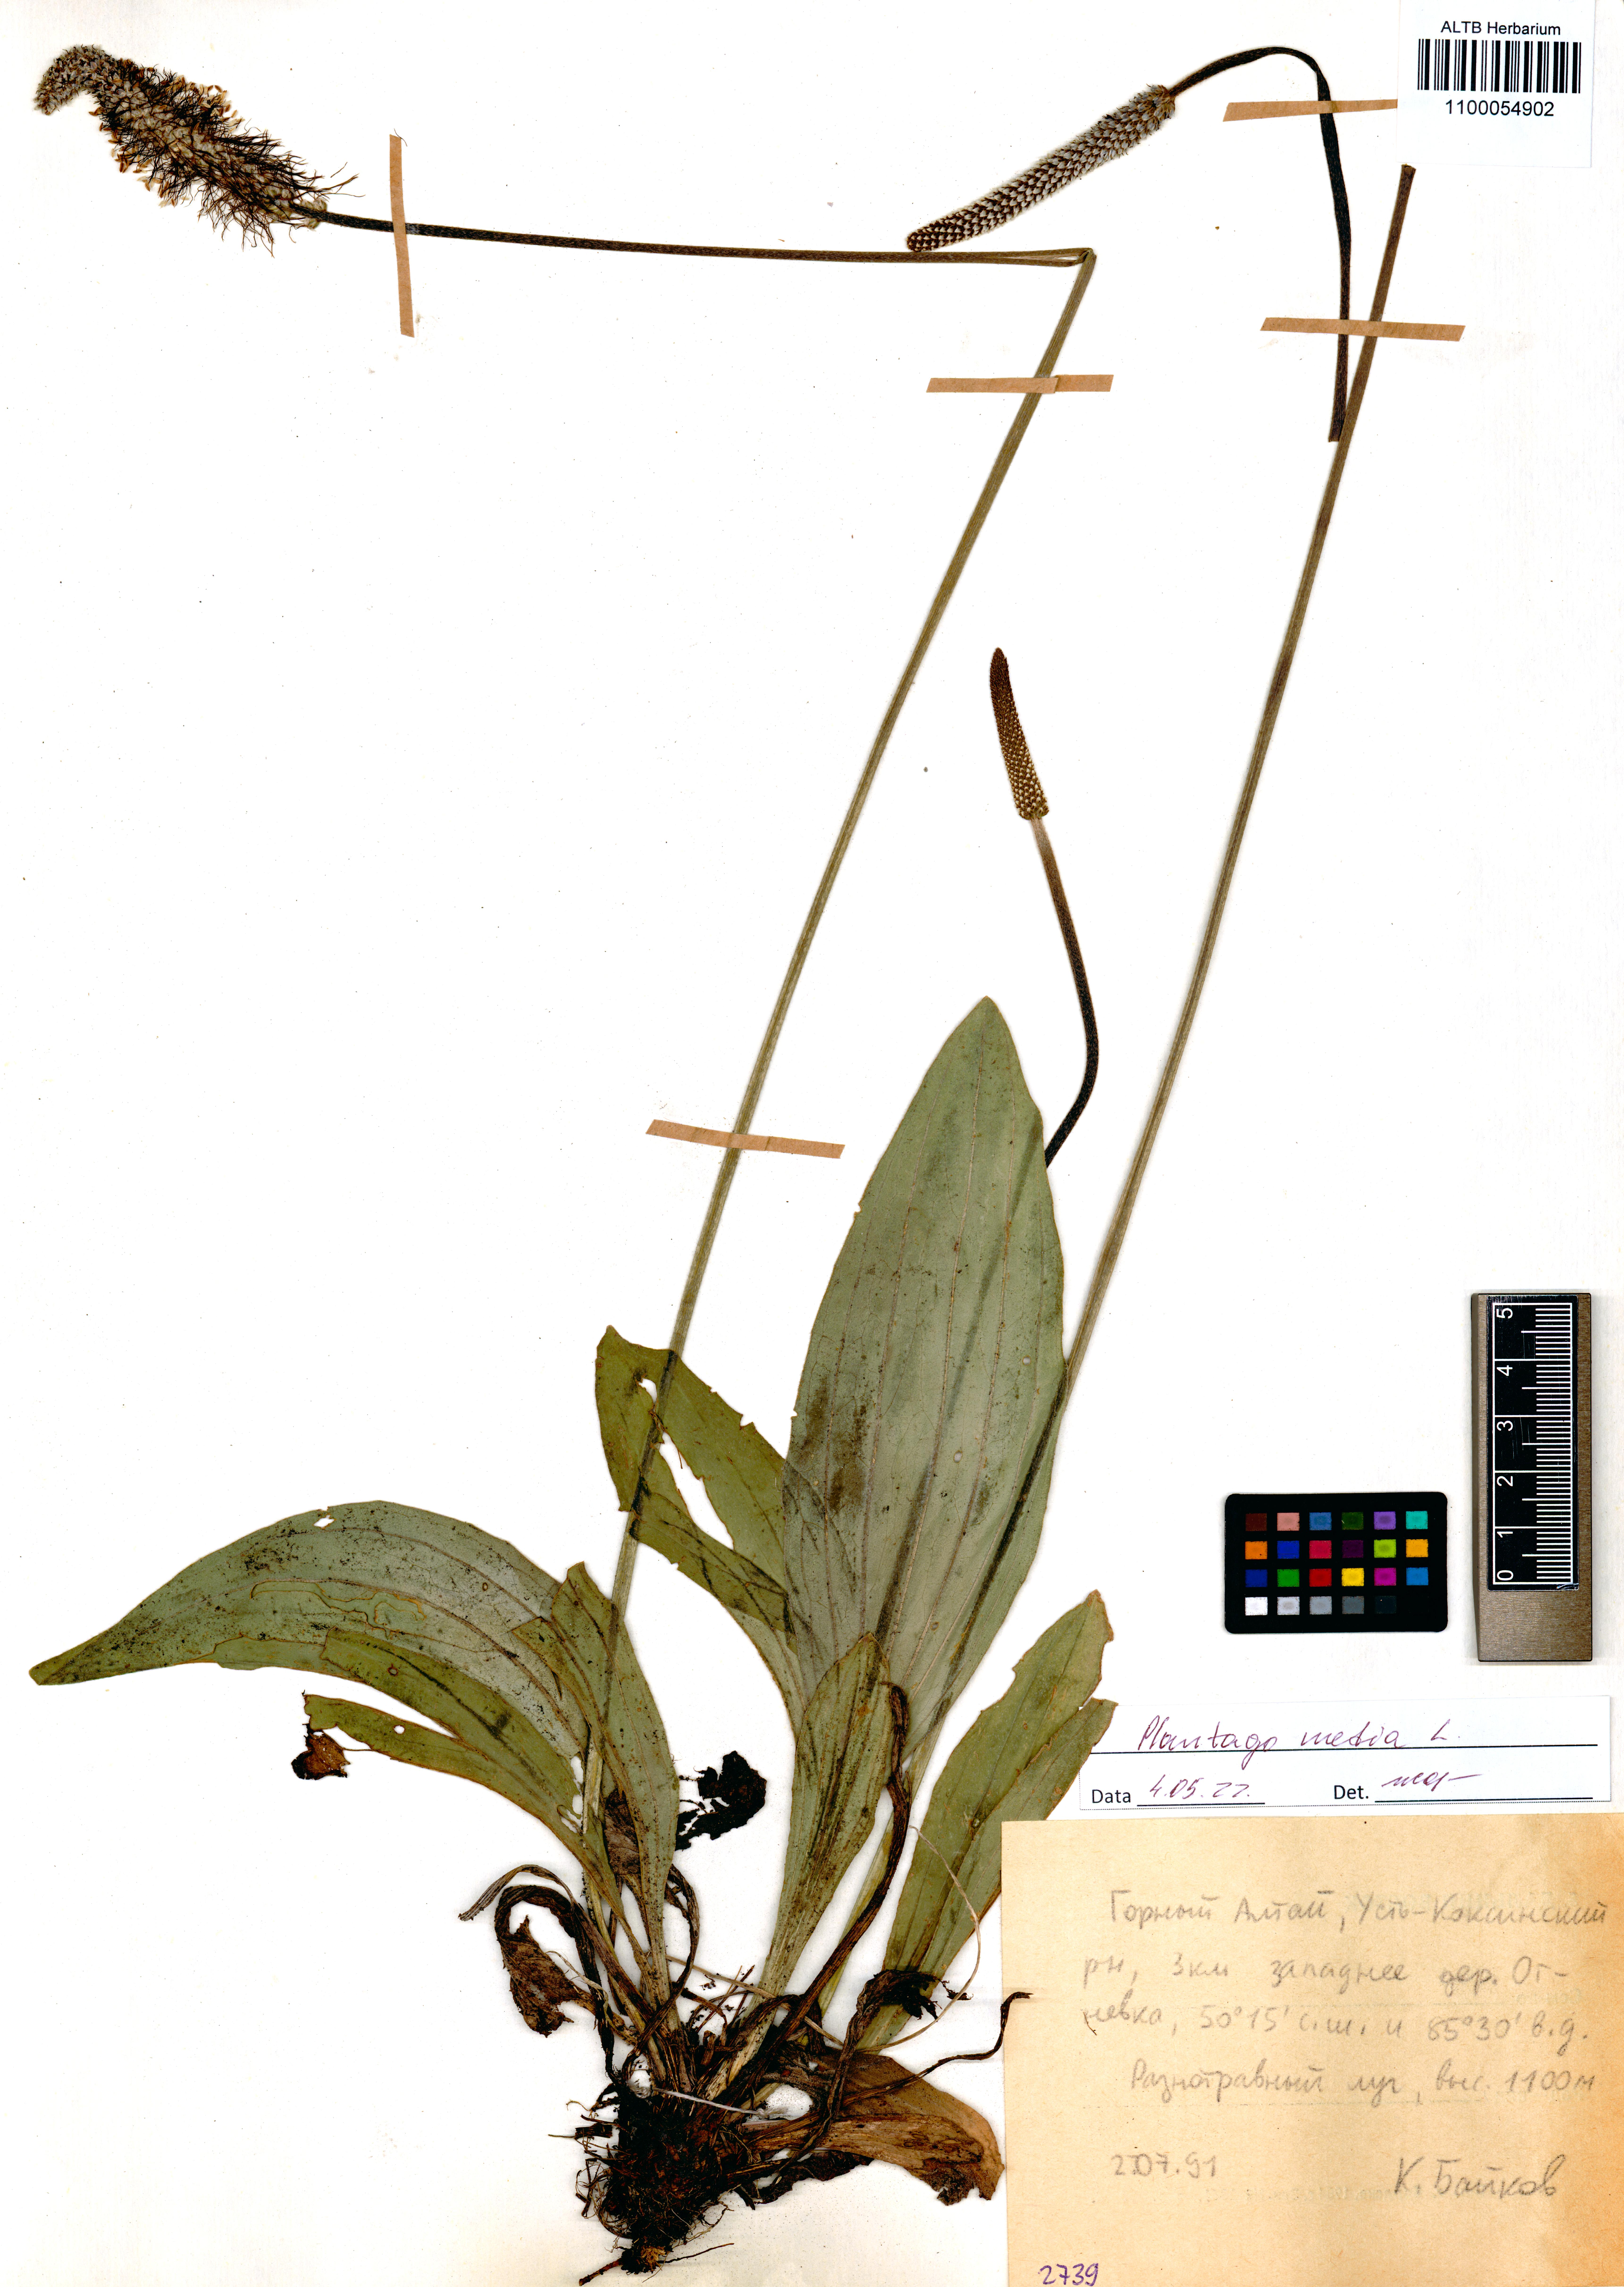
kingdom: Plantae
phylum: Tracheophyta
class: Magnoliopsida
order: Lamiales
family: Plantaginaceae
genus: Plantago
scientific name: Plantago media
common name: Hoary plantain
